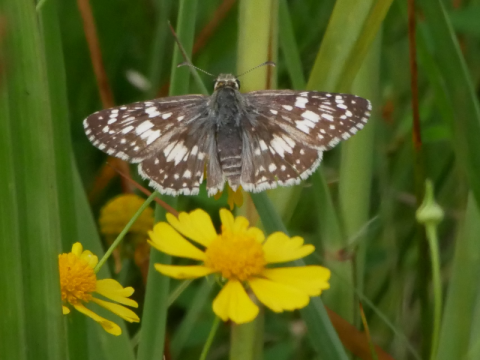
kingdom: Animalia
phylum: Arthropoda
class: Insecta
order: Lepidoptera
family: Hesperiidae
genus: Pyrgus
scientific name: Pyrgus communis
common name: Common Checkered-Skipper
